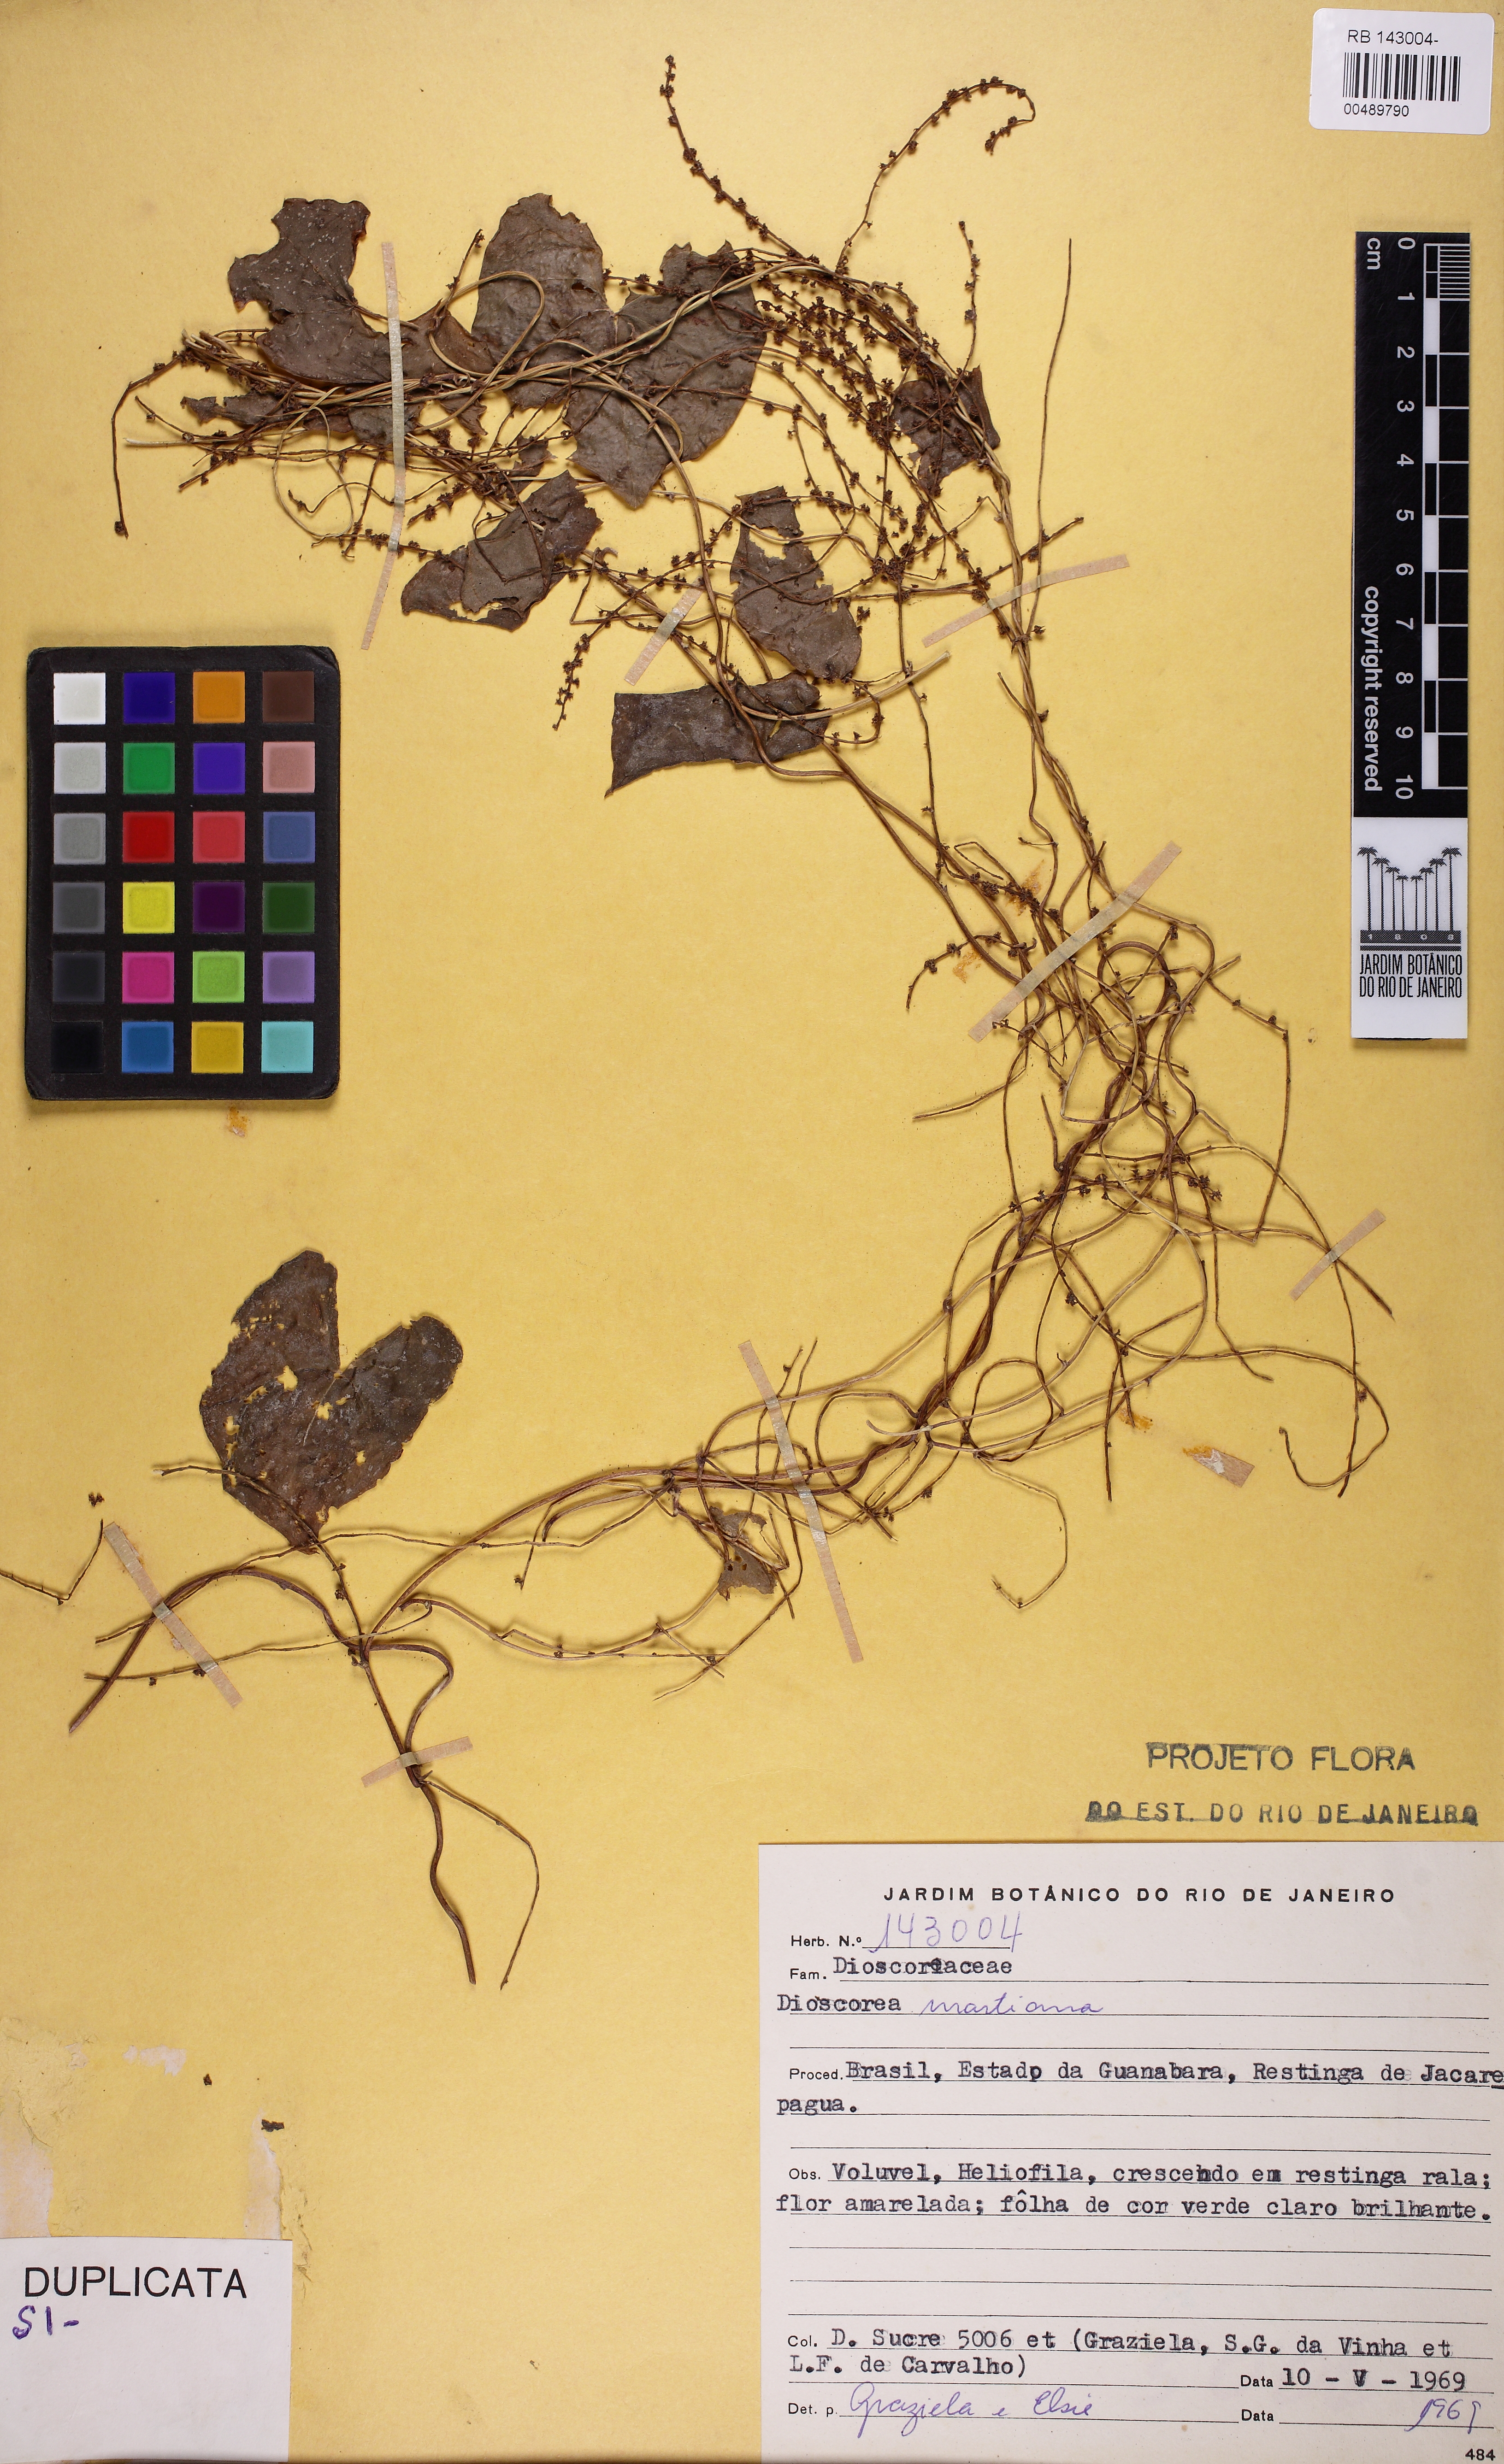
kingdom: Plantae
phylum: Tracheophyta
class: Liliopsida
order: Dioscoreales
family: Dioscoreaceae
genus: Dioscorea
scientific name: Dioscorea polygonoides
